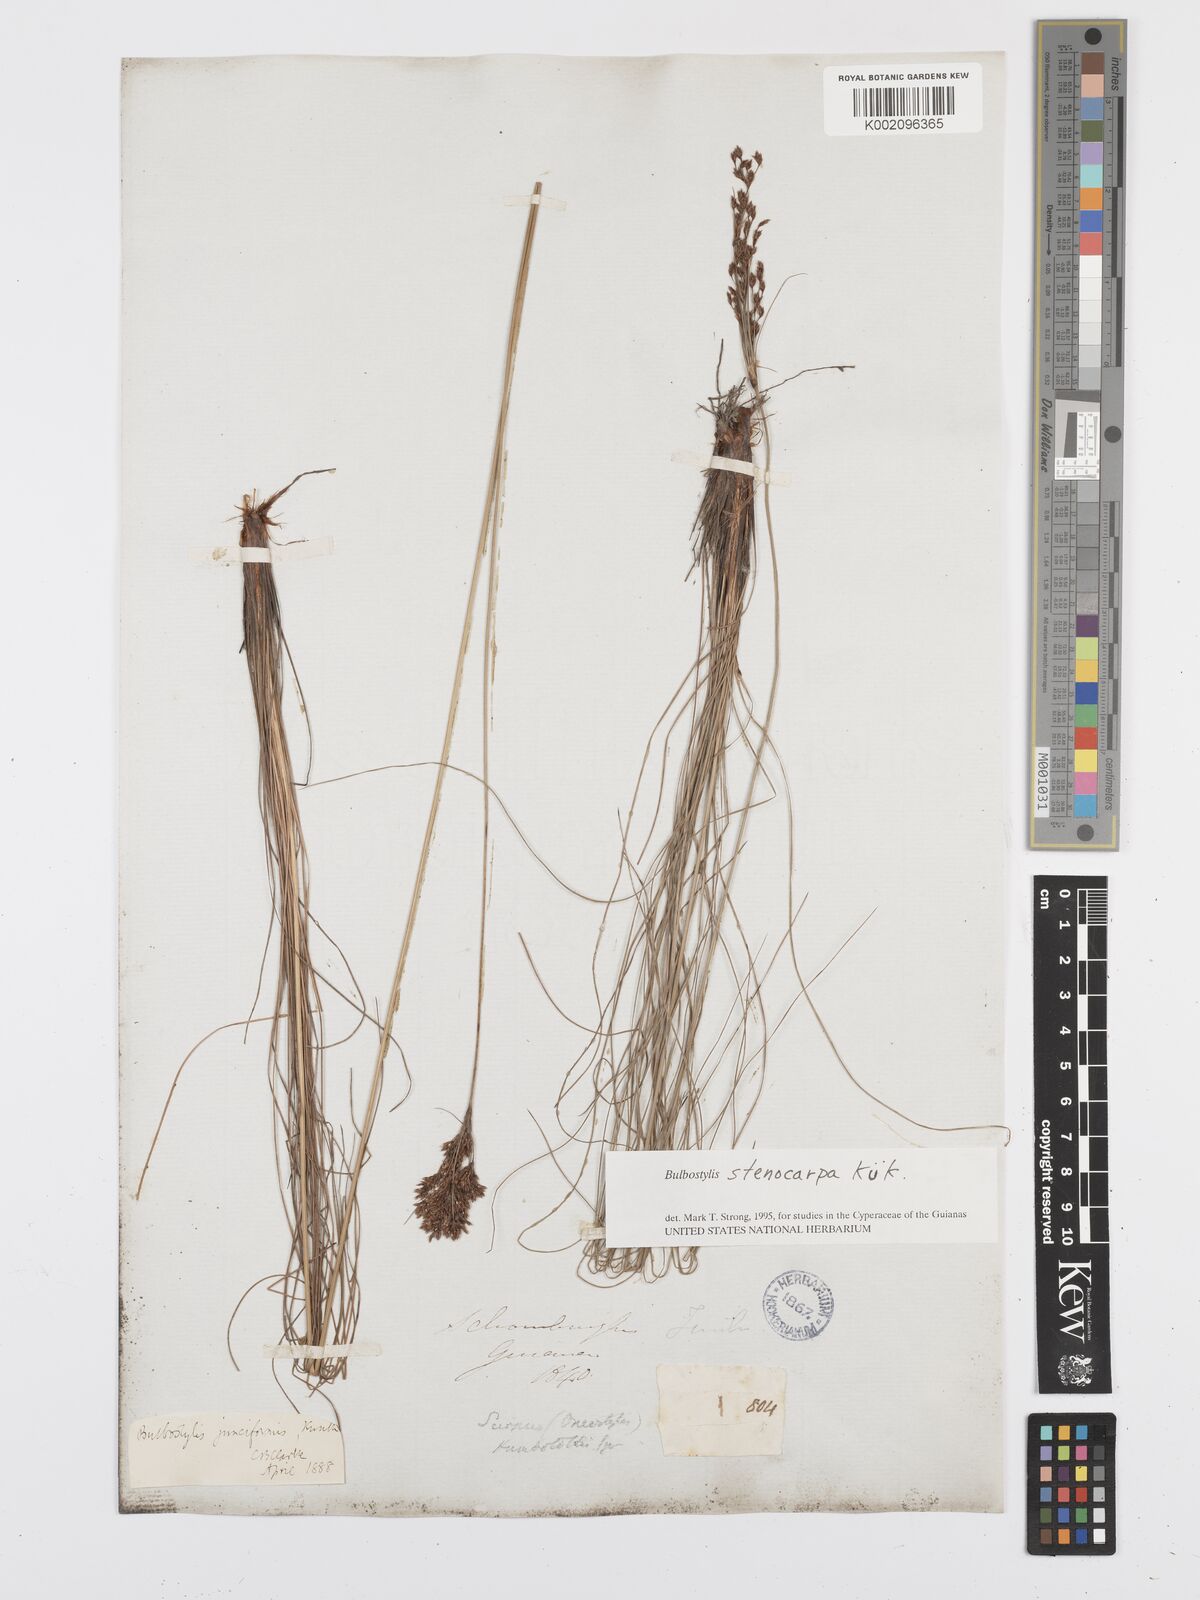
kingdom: Plantae
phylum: Tracheophyta
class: Liliopsida
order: Poales
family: Cyperaceae
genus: Bulbostylis
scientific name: Bulbostylis stenocarpa
